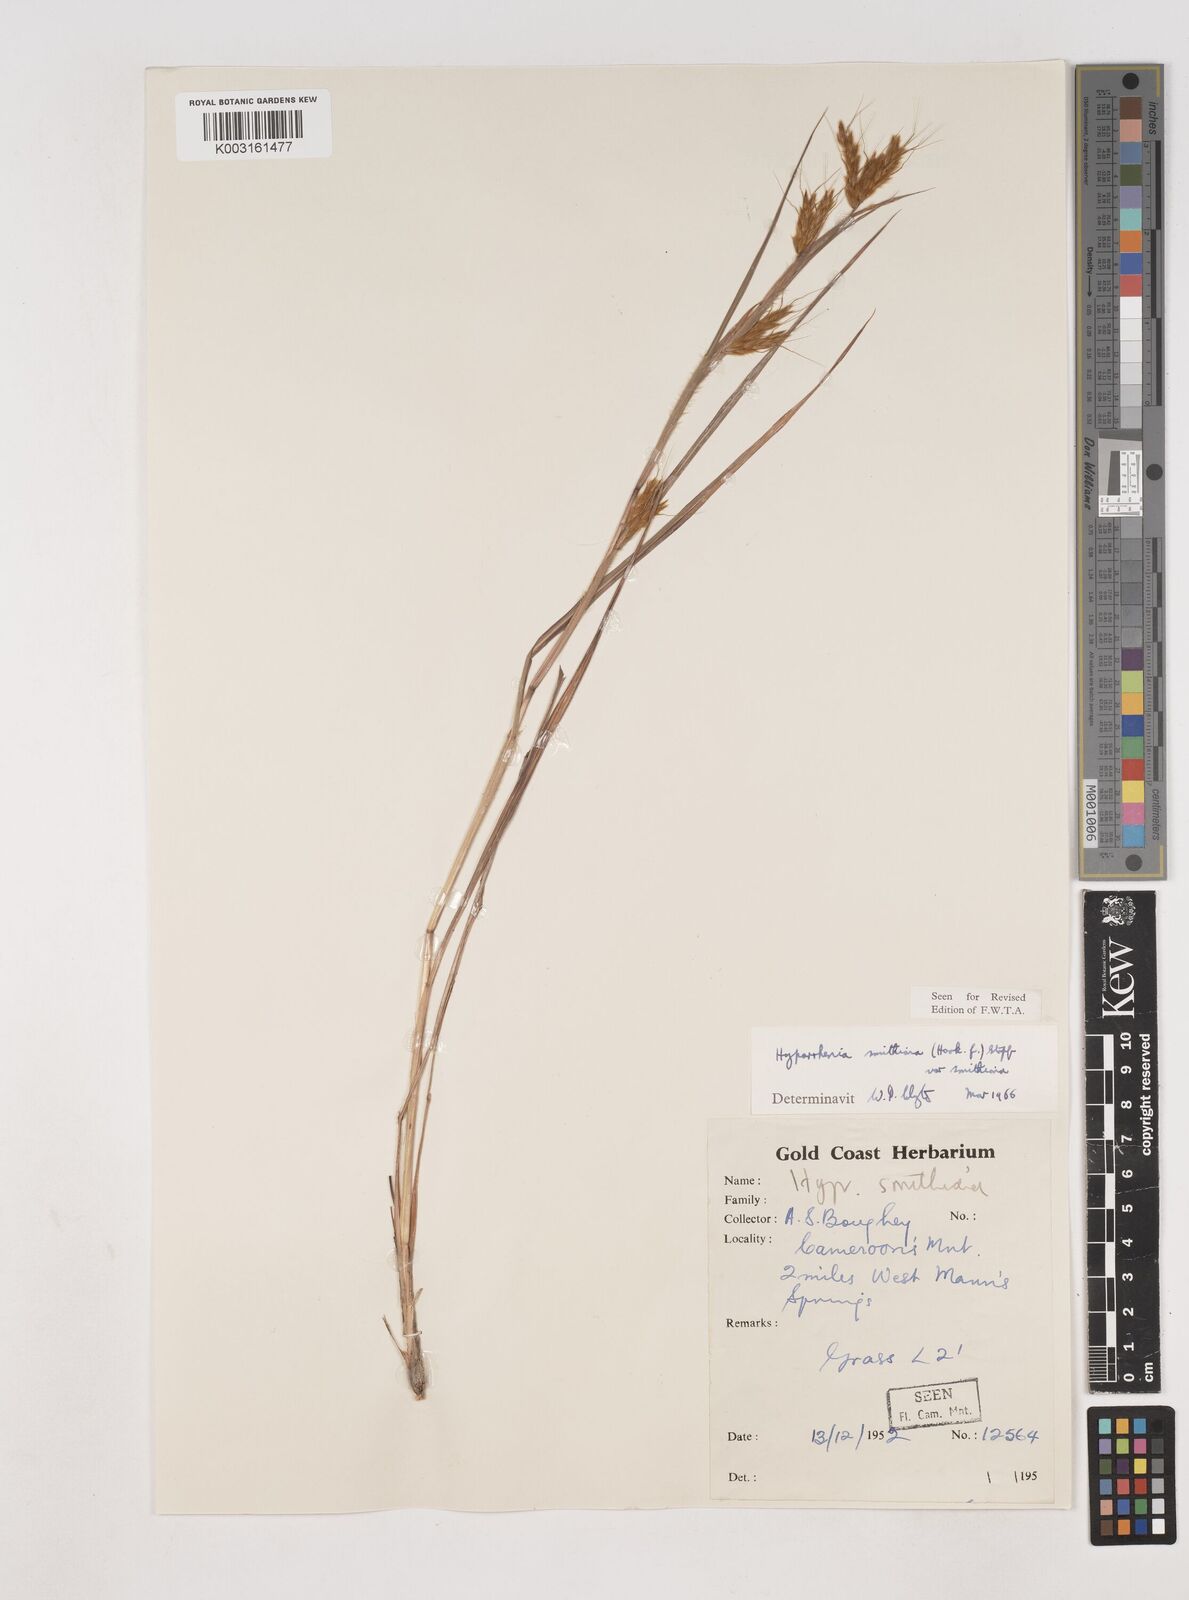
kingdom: Plantae
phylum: Tracheophyta
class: Liliopsida
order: Poales
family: Poaceae
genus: Hyparrhenia
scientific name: Hyparrhenia smithiana
